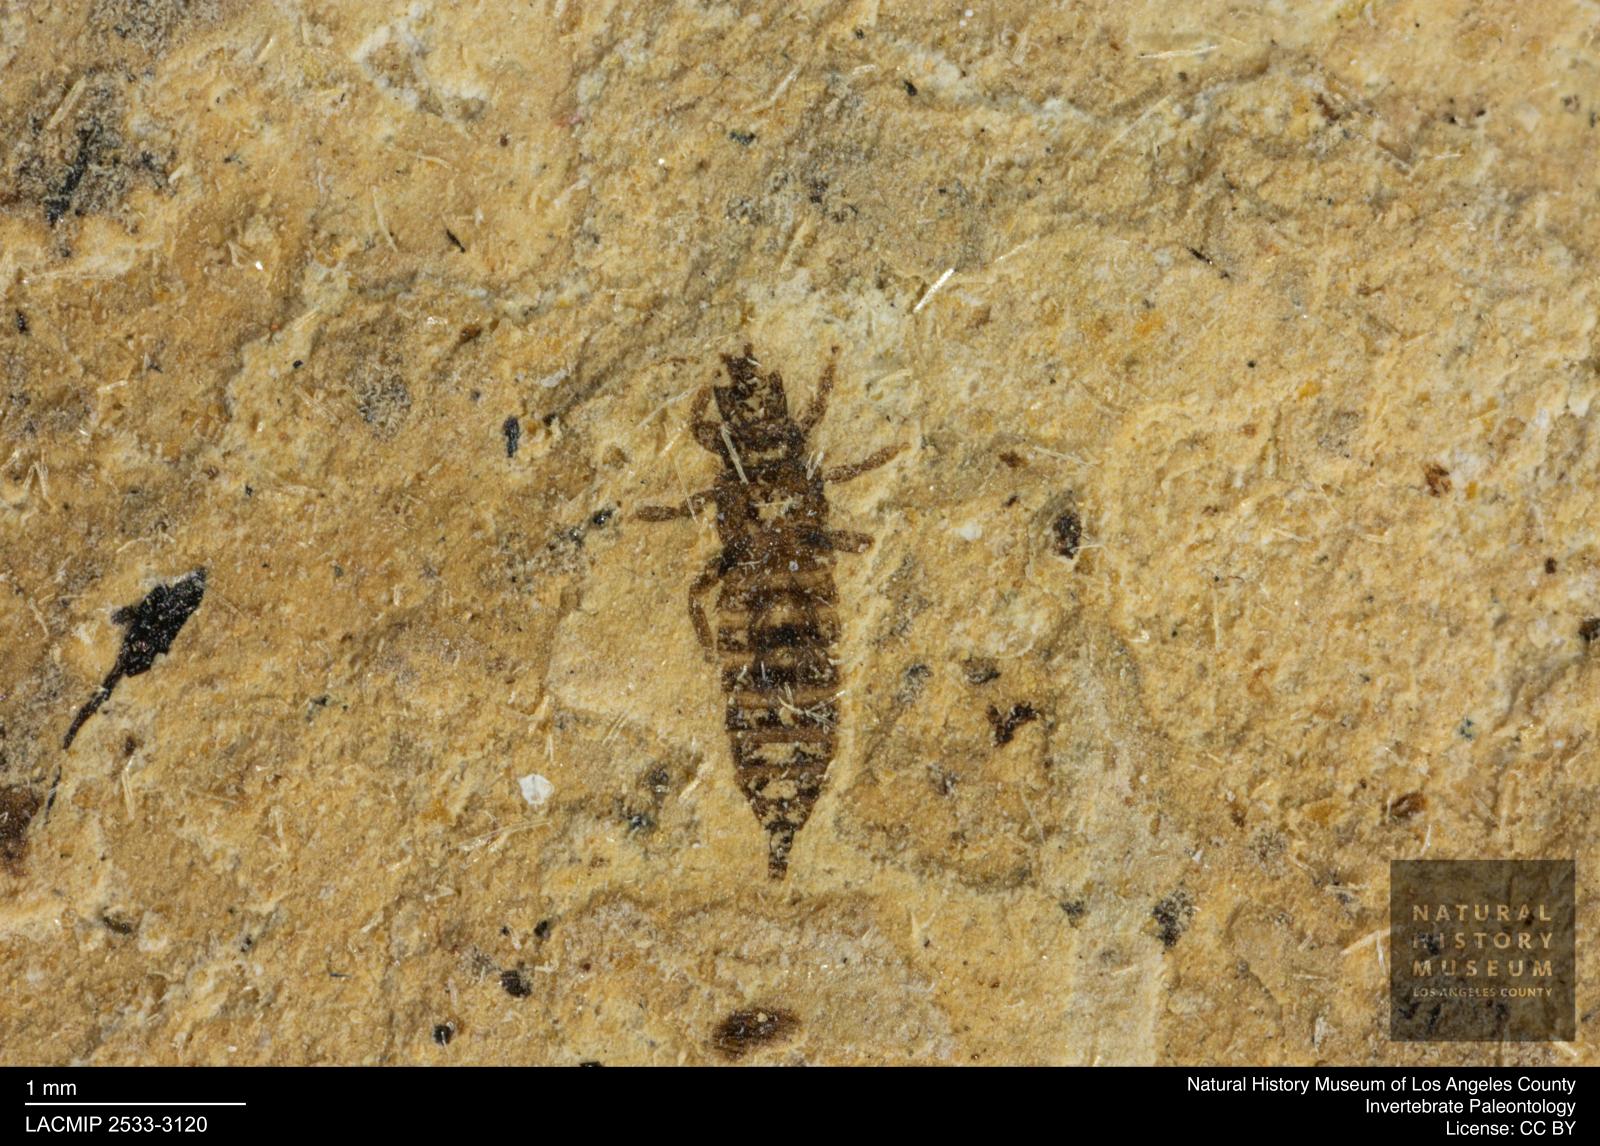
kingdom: Animalia
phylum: Arthropoda
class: Insecta
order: Thysanoptera
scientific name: Thysanoptera
